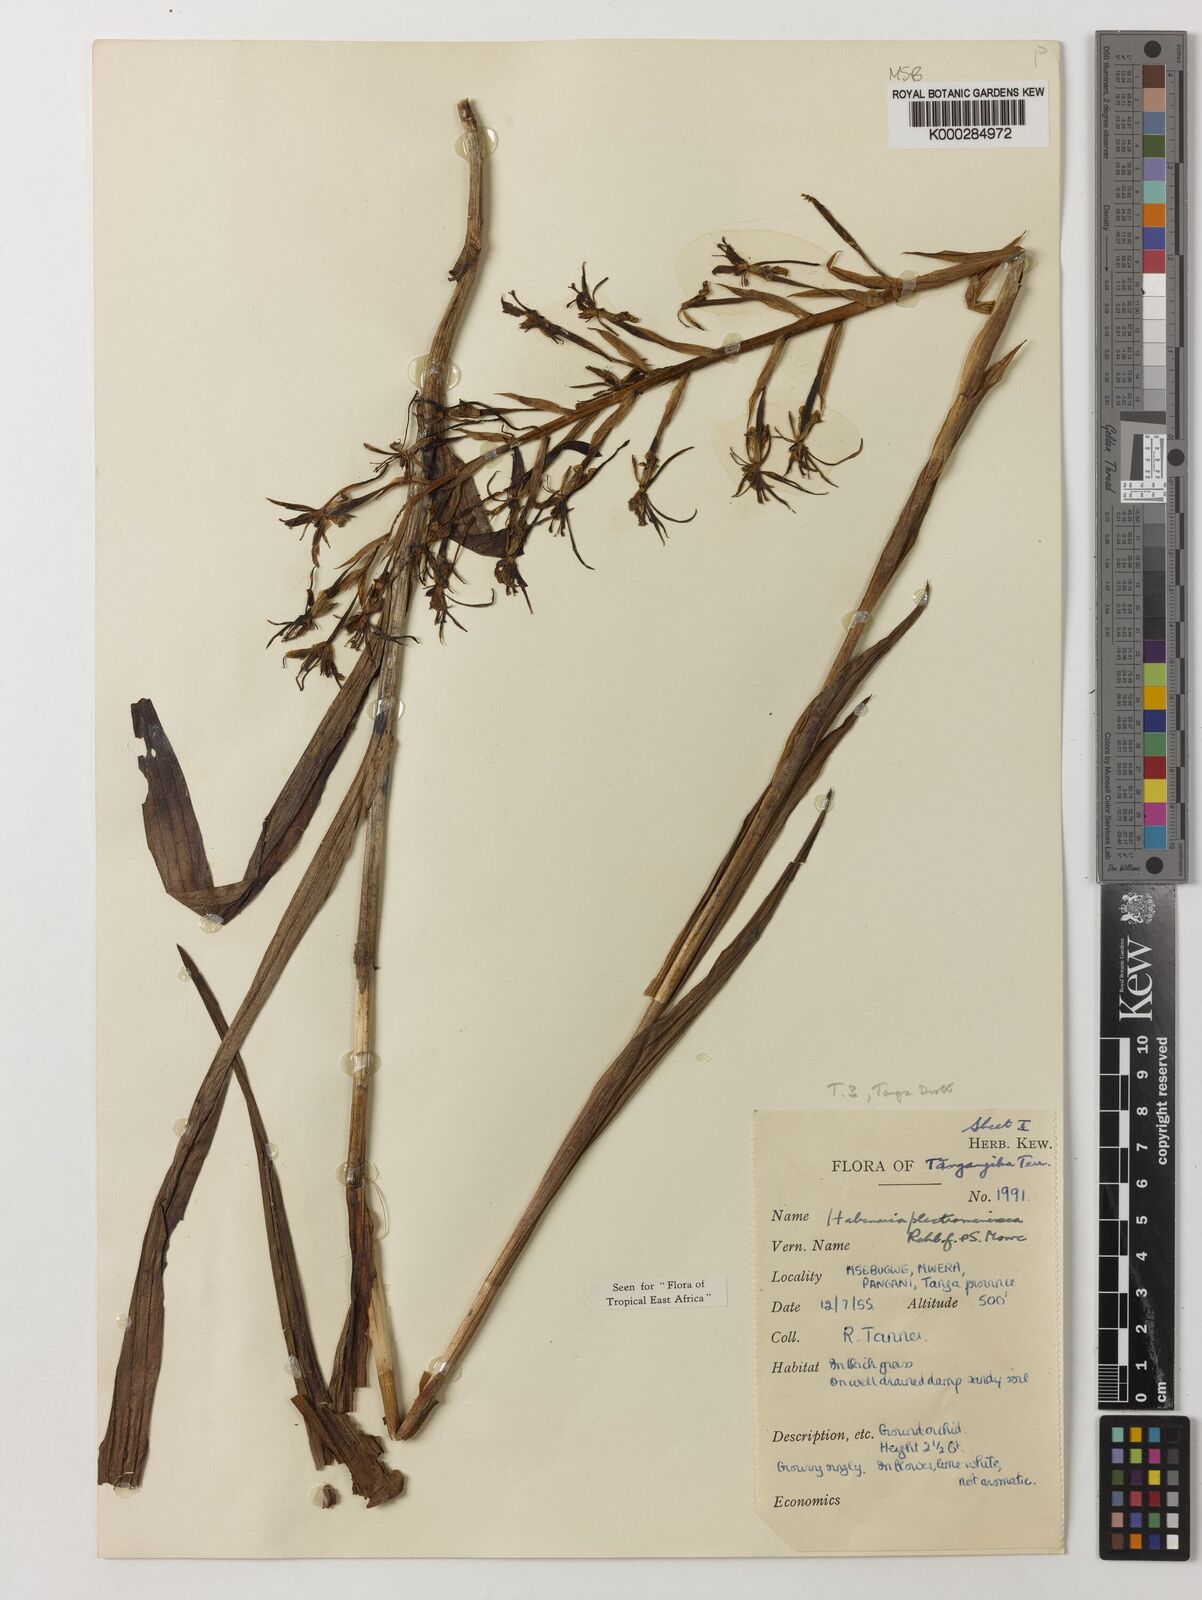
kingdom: Plantae
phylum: Tracheophyta
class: Liliopsida
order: Asparagales
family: Orchidaceae
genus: Habenaria
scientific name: Habenaria plectromaniaca
